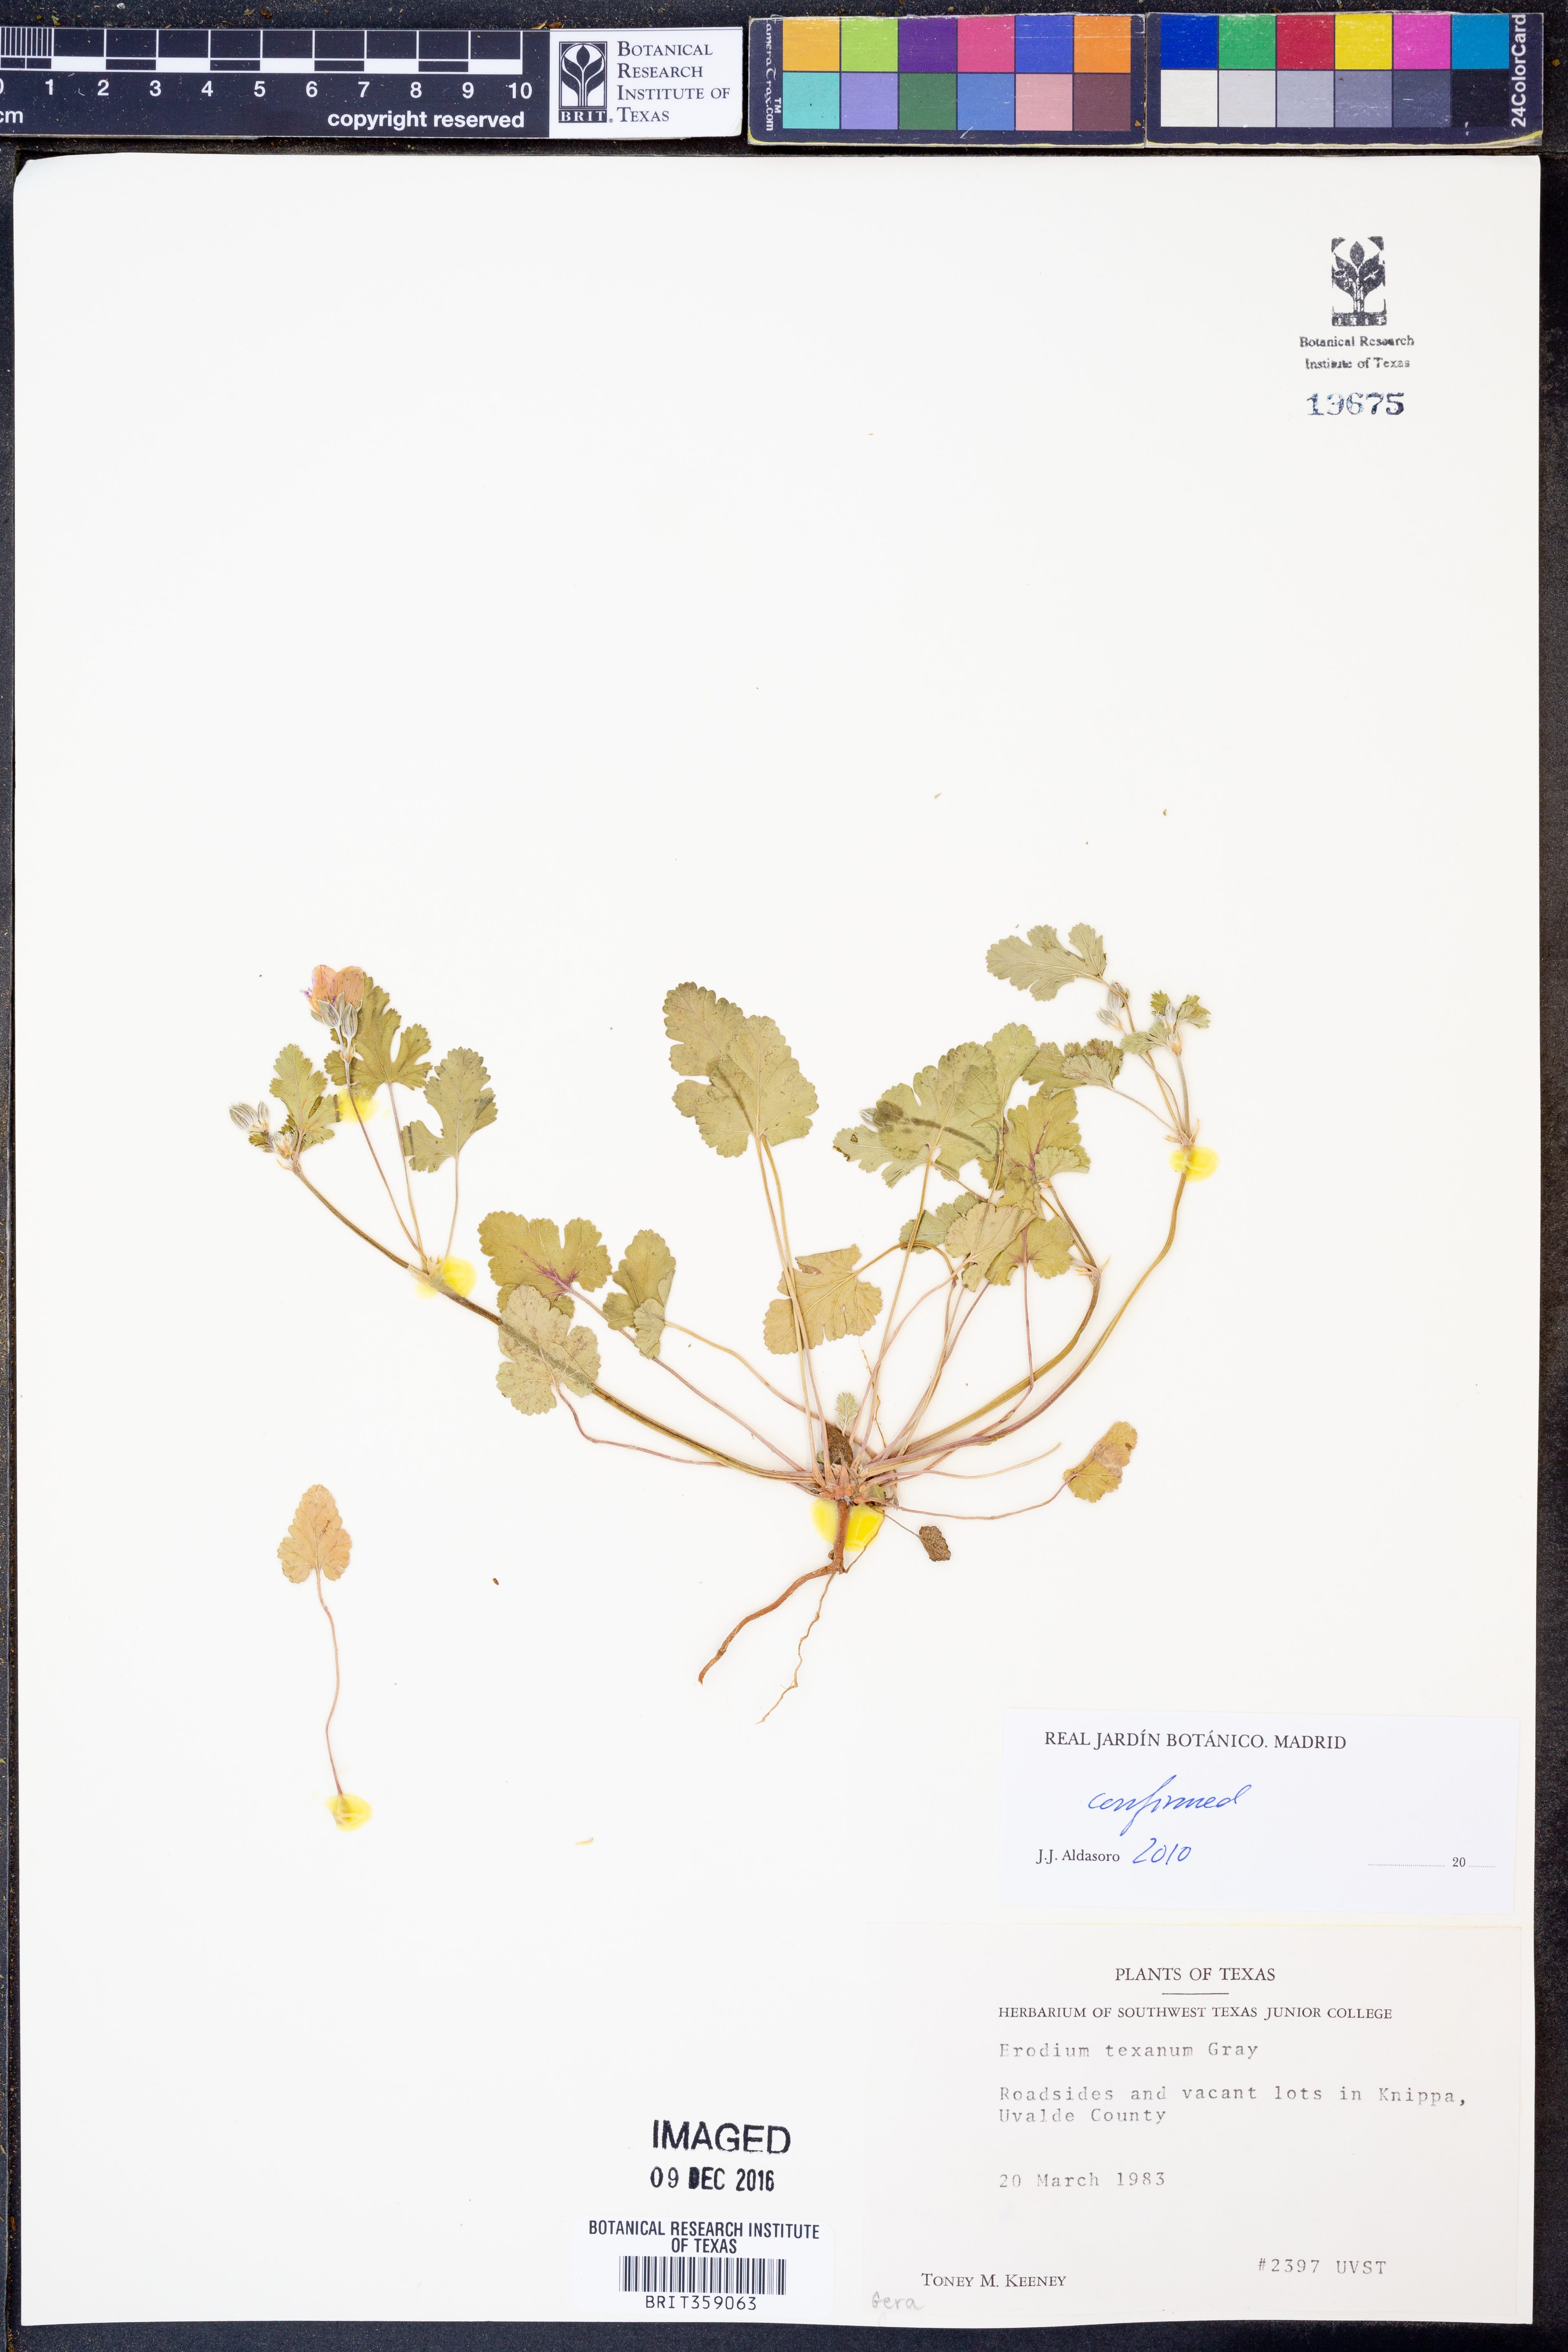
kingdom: Plantae
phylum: Tracheophyta
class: Magnoliopsida
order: Geraniales
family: Geraniaceae
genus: Erodium
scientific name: Erodium texanum
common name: Texas stork's-bill
